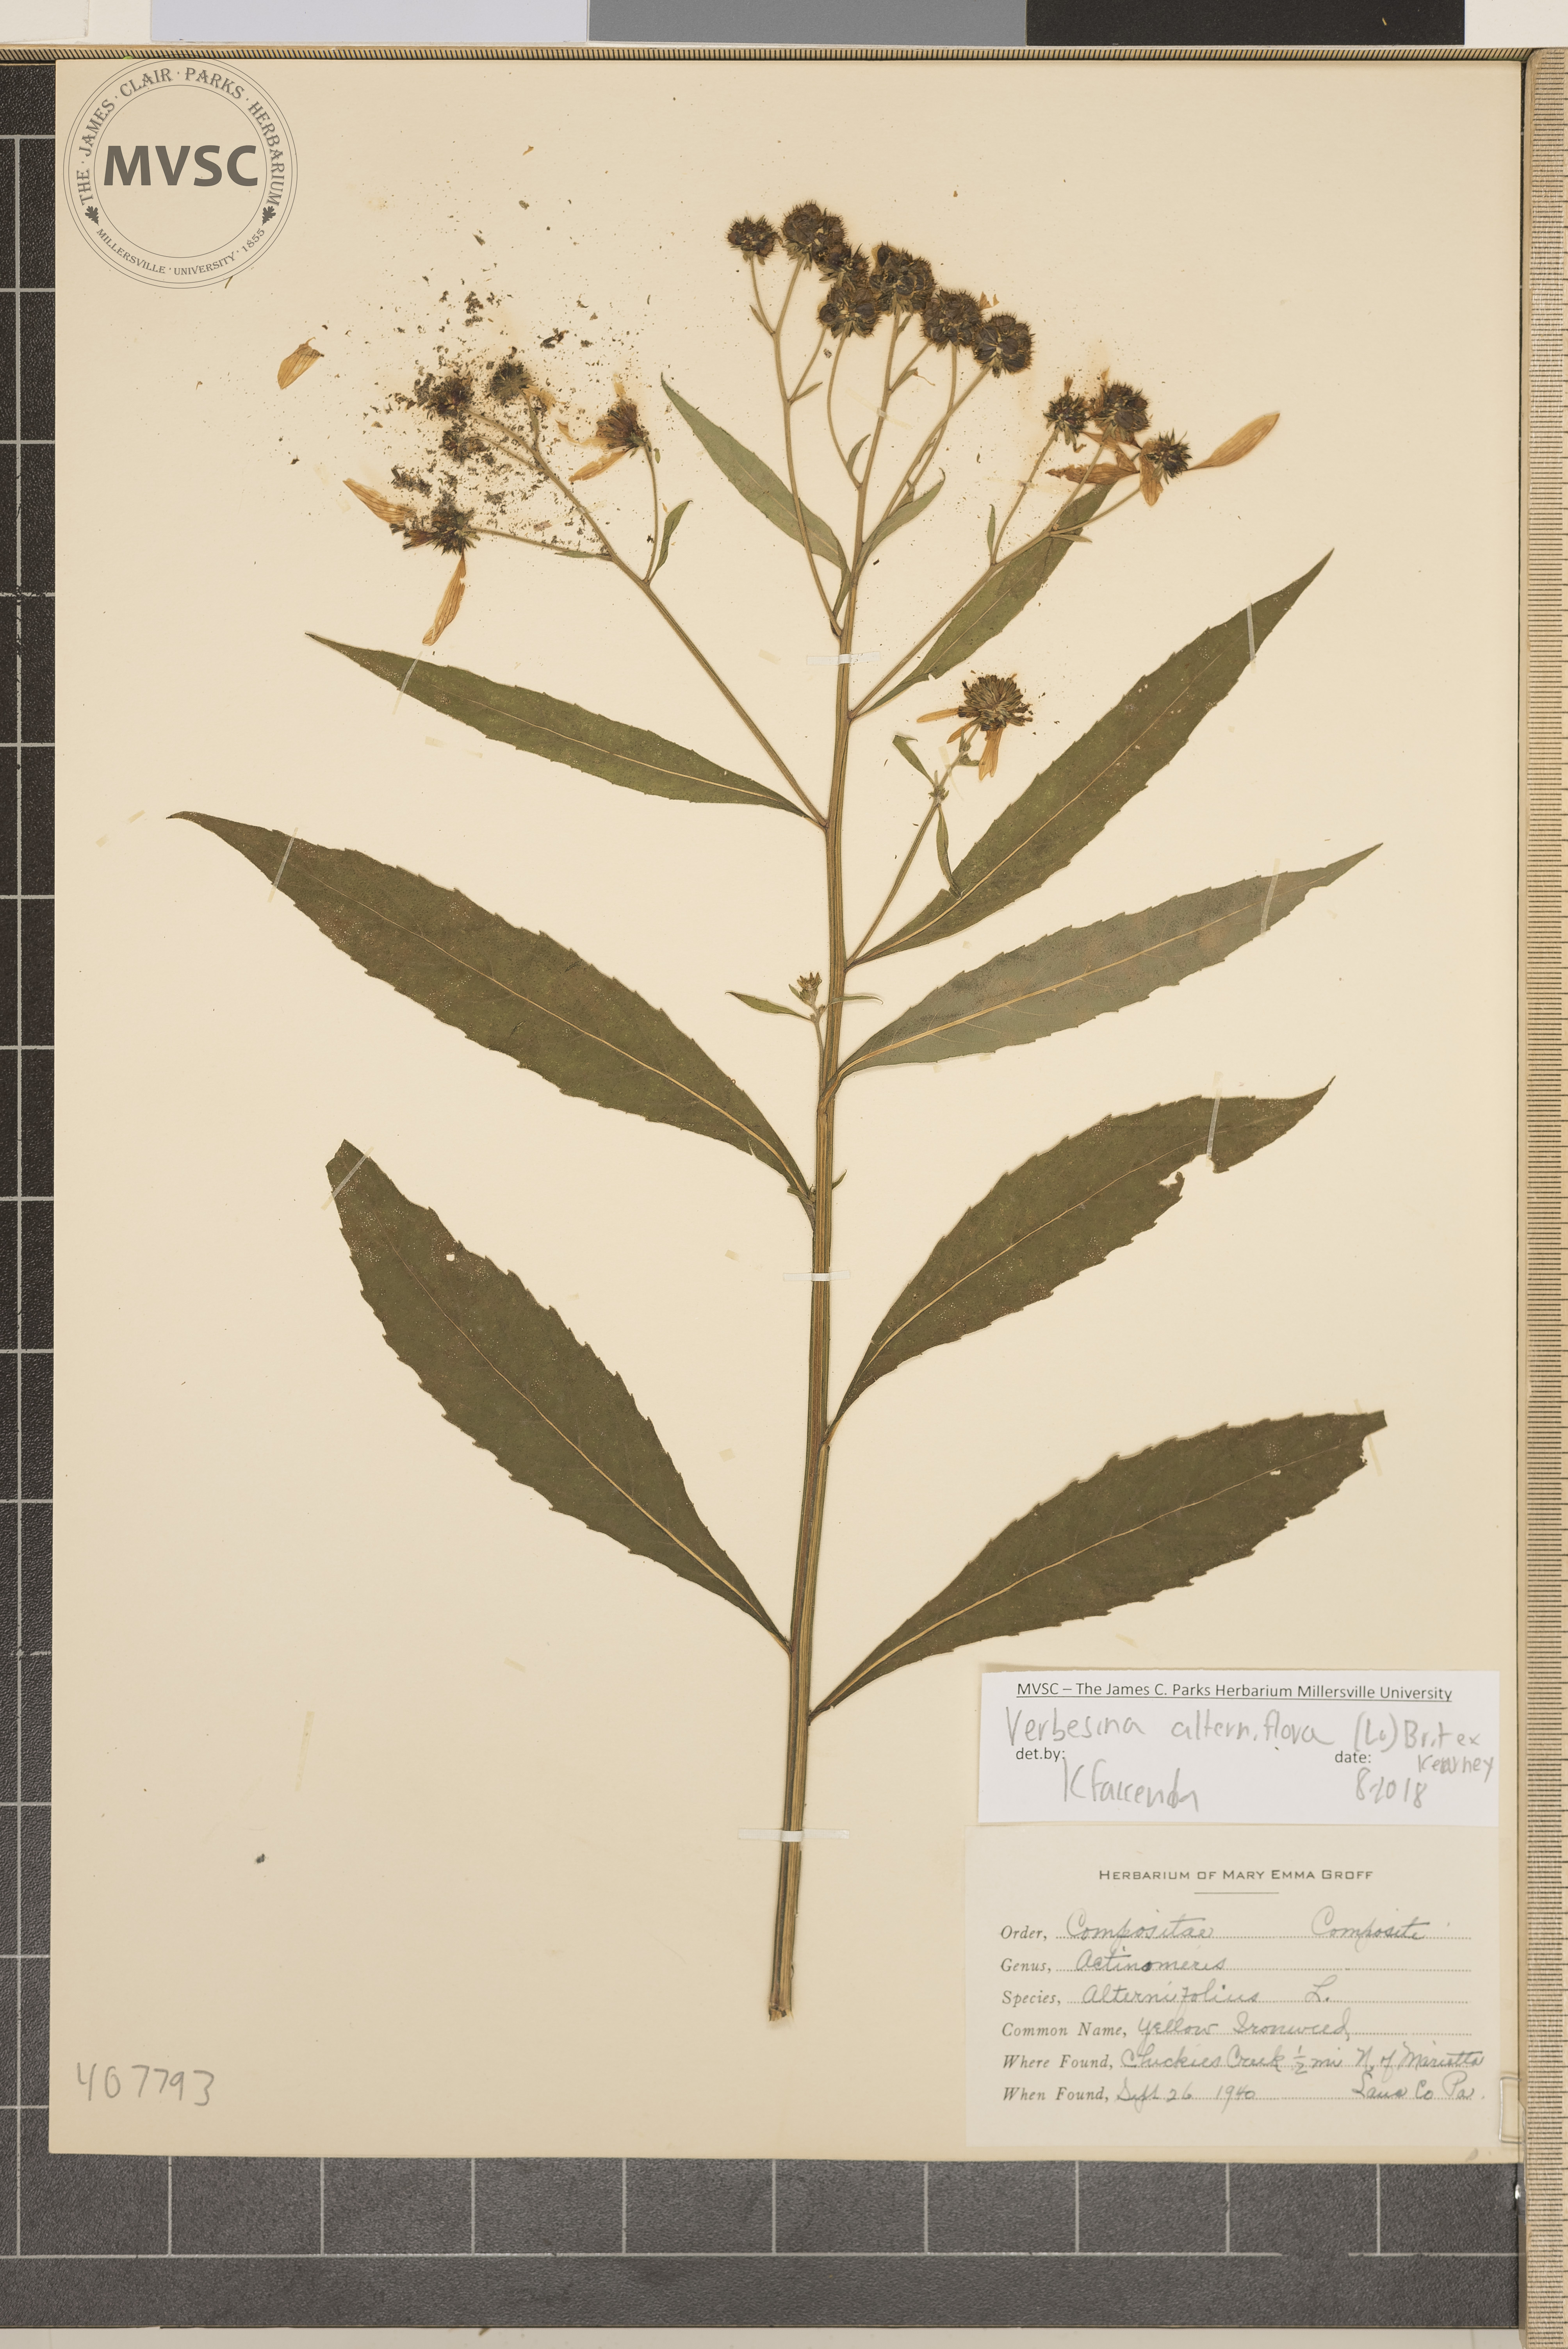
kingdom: Plantae
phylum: Tracheophyta
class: Magnoliopsida
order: Asterales
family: Asteraceae
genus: Verbesina
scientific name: Verbesina alternifolia
